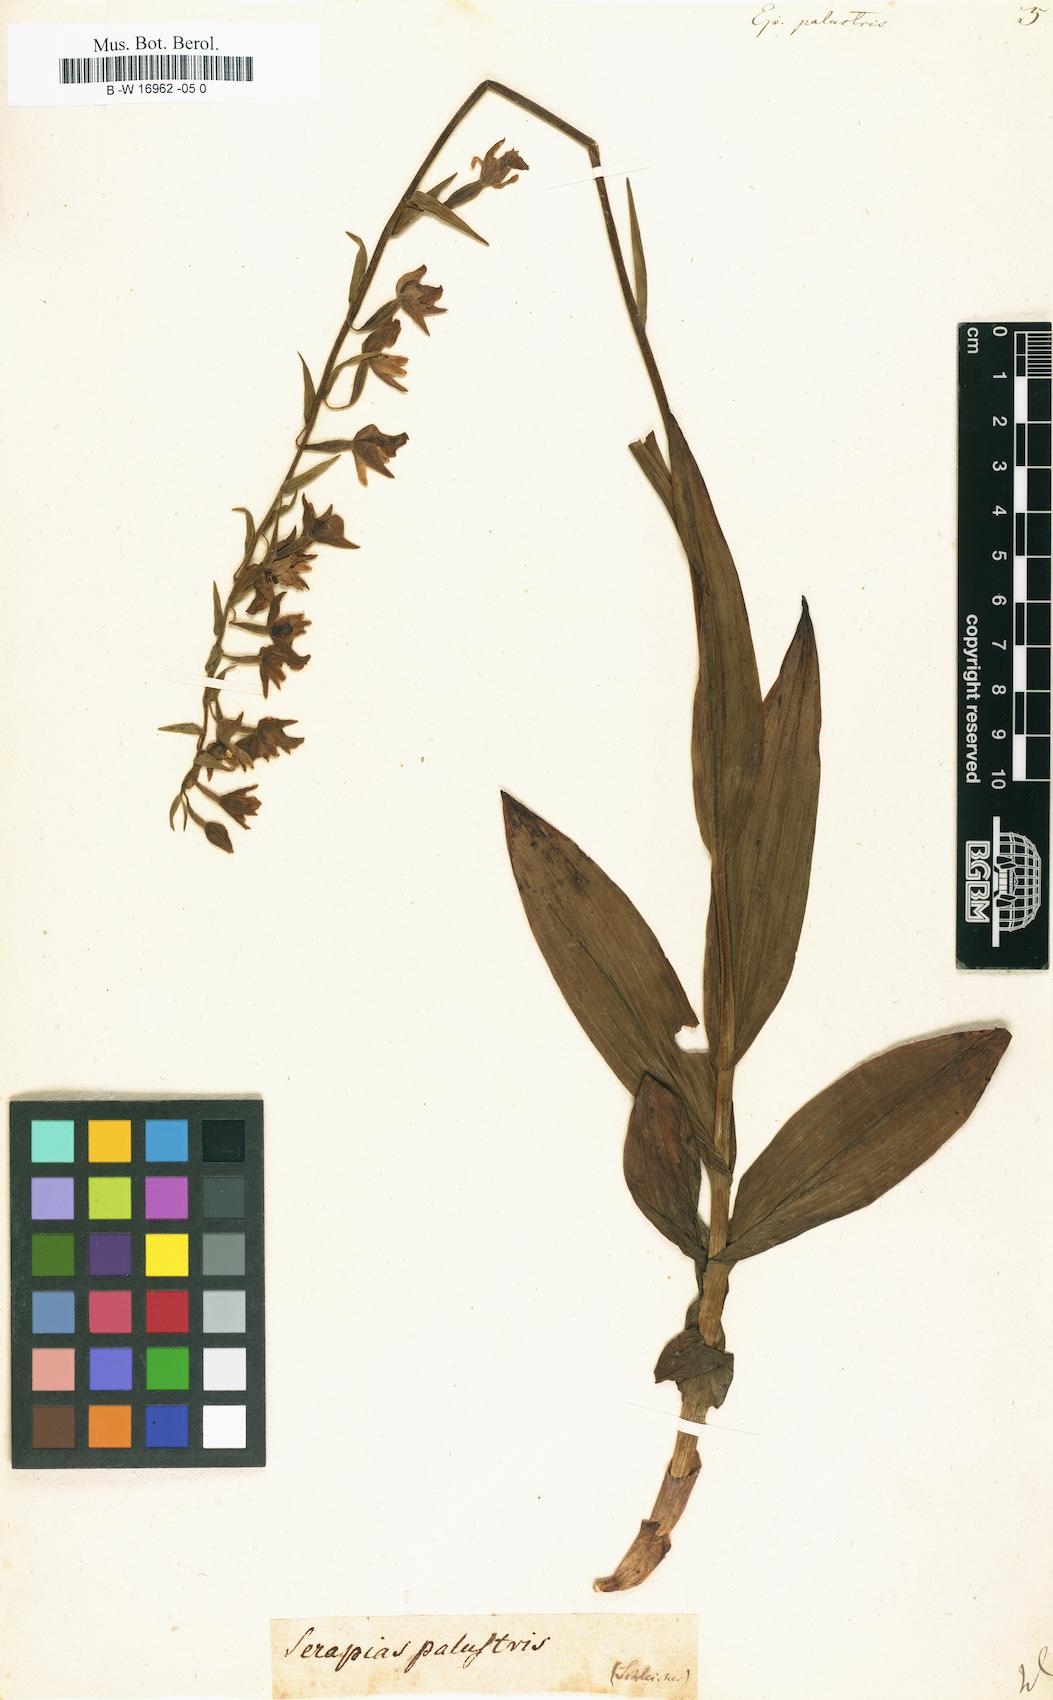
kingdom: Plantae
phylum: Tracheophyta
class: Liliopsida
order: Asparagales
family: Orchidaceae
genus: Epipactis
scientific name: Epipactis palustris
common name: Marsh helleborine
